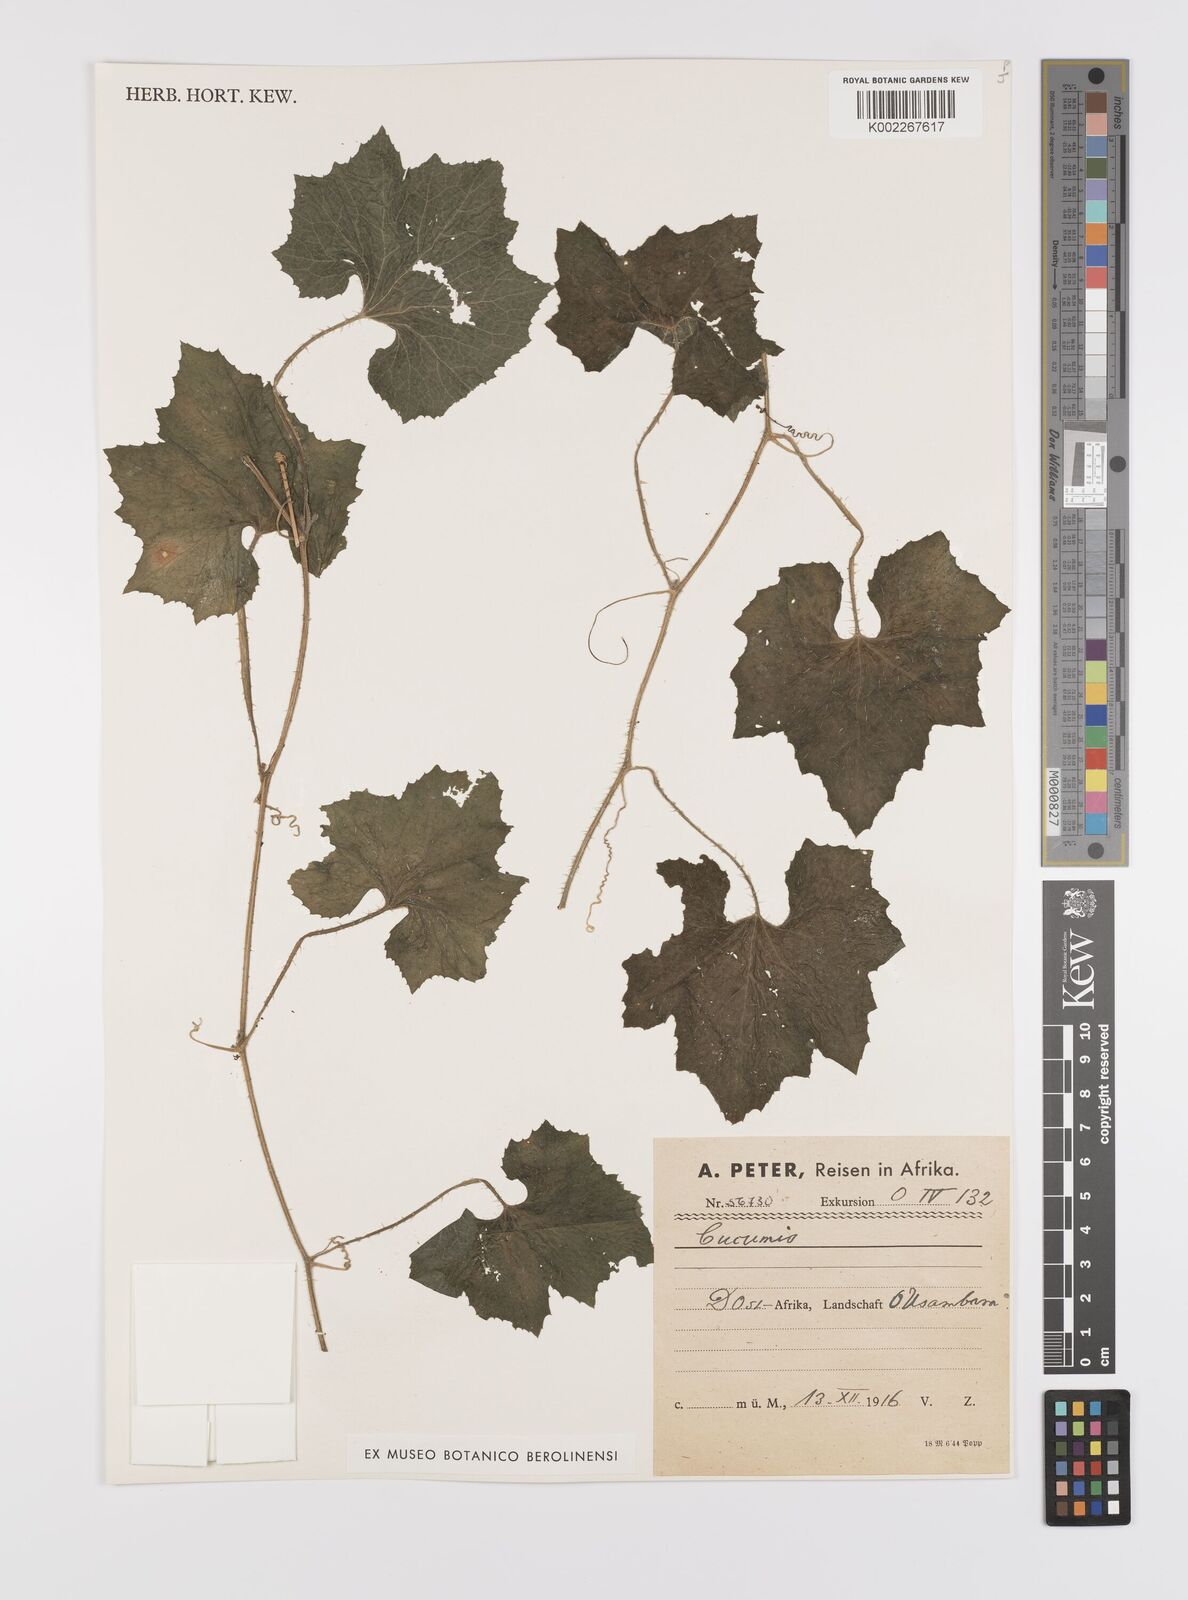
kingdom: Plantae
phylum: Tracheophyta
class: Magnoliopsida
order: Cucurbitales
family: Cucurbitaceae
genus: Cucumis
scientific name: Cucumis sacleuxii
